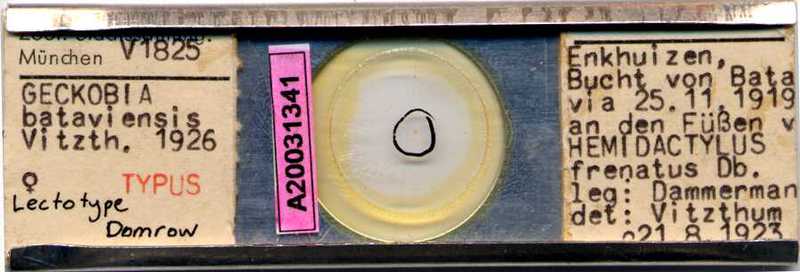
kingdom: Animalia
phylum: Arthropoda
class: Arachnida
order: Trombidiformes
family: Pterygosomatidae
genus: Geckobia
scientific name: Geckobia
